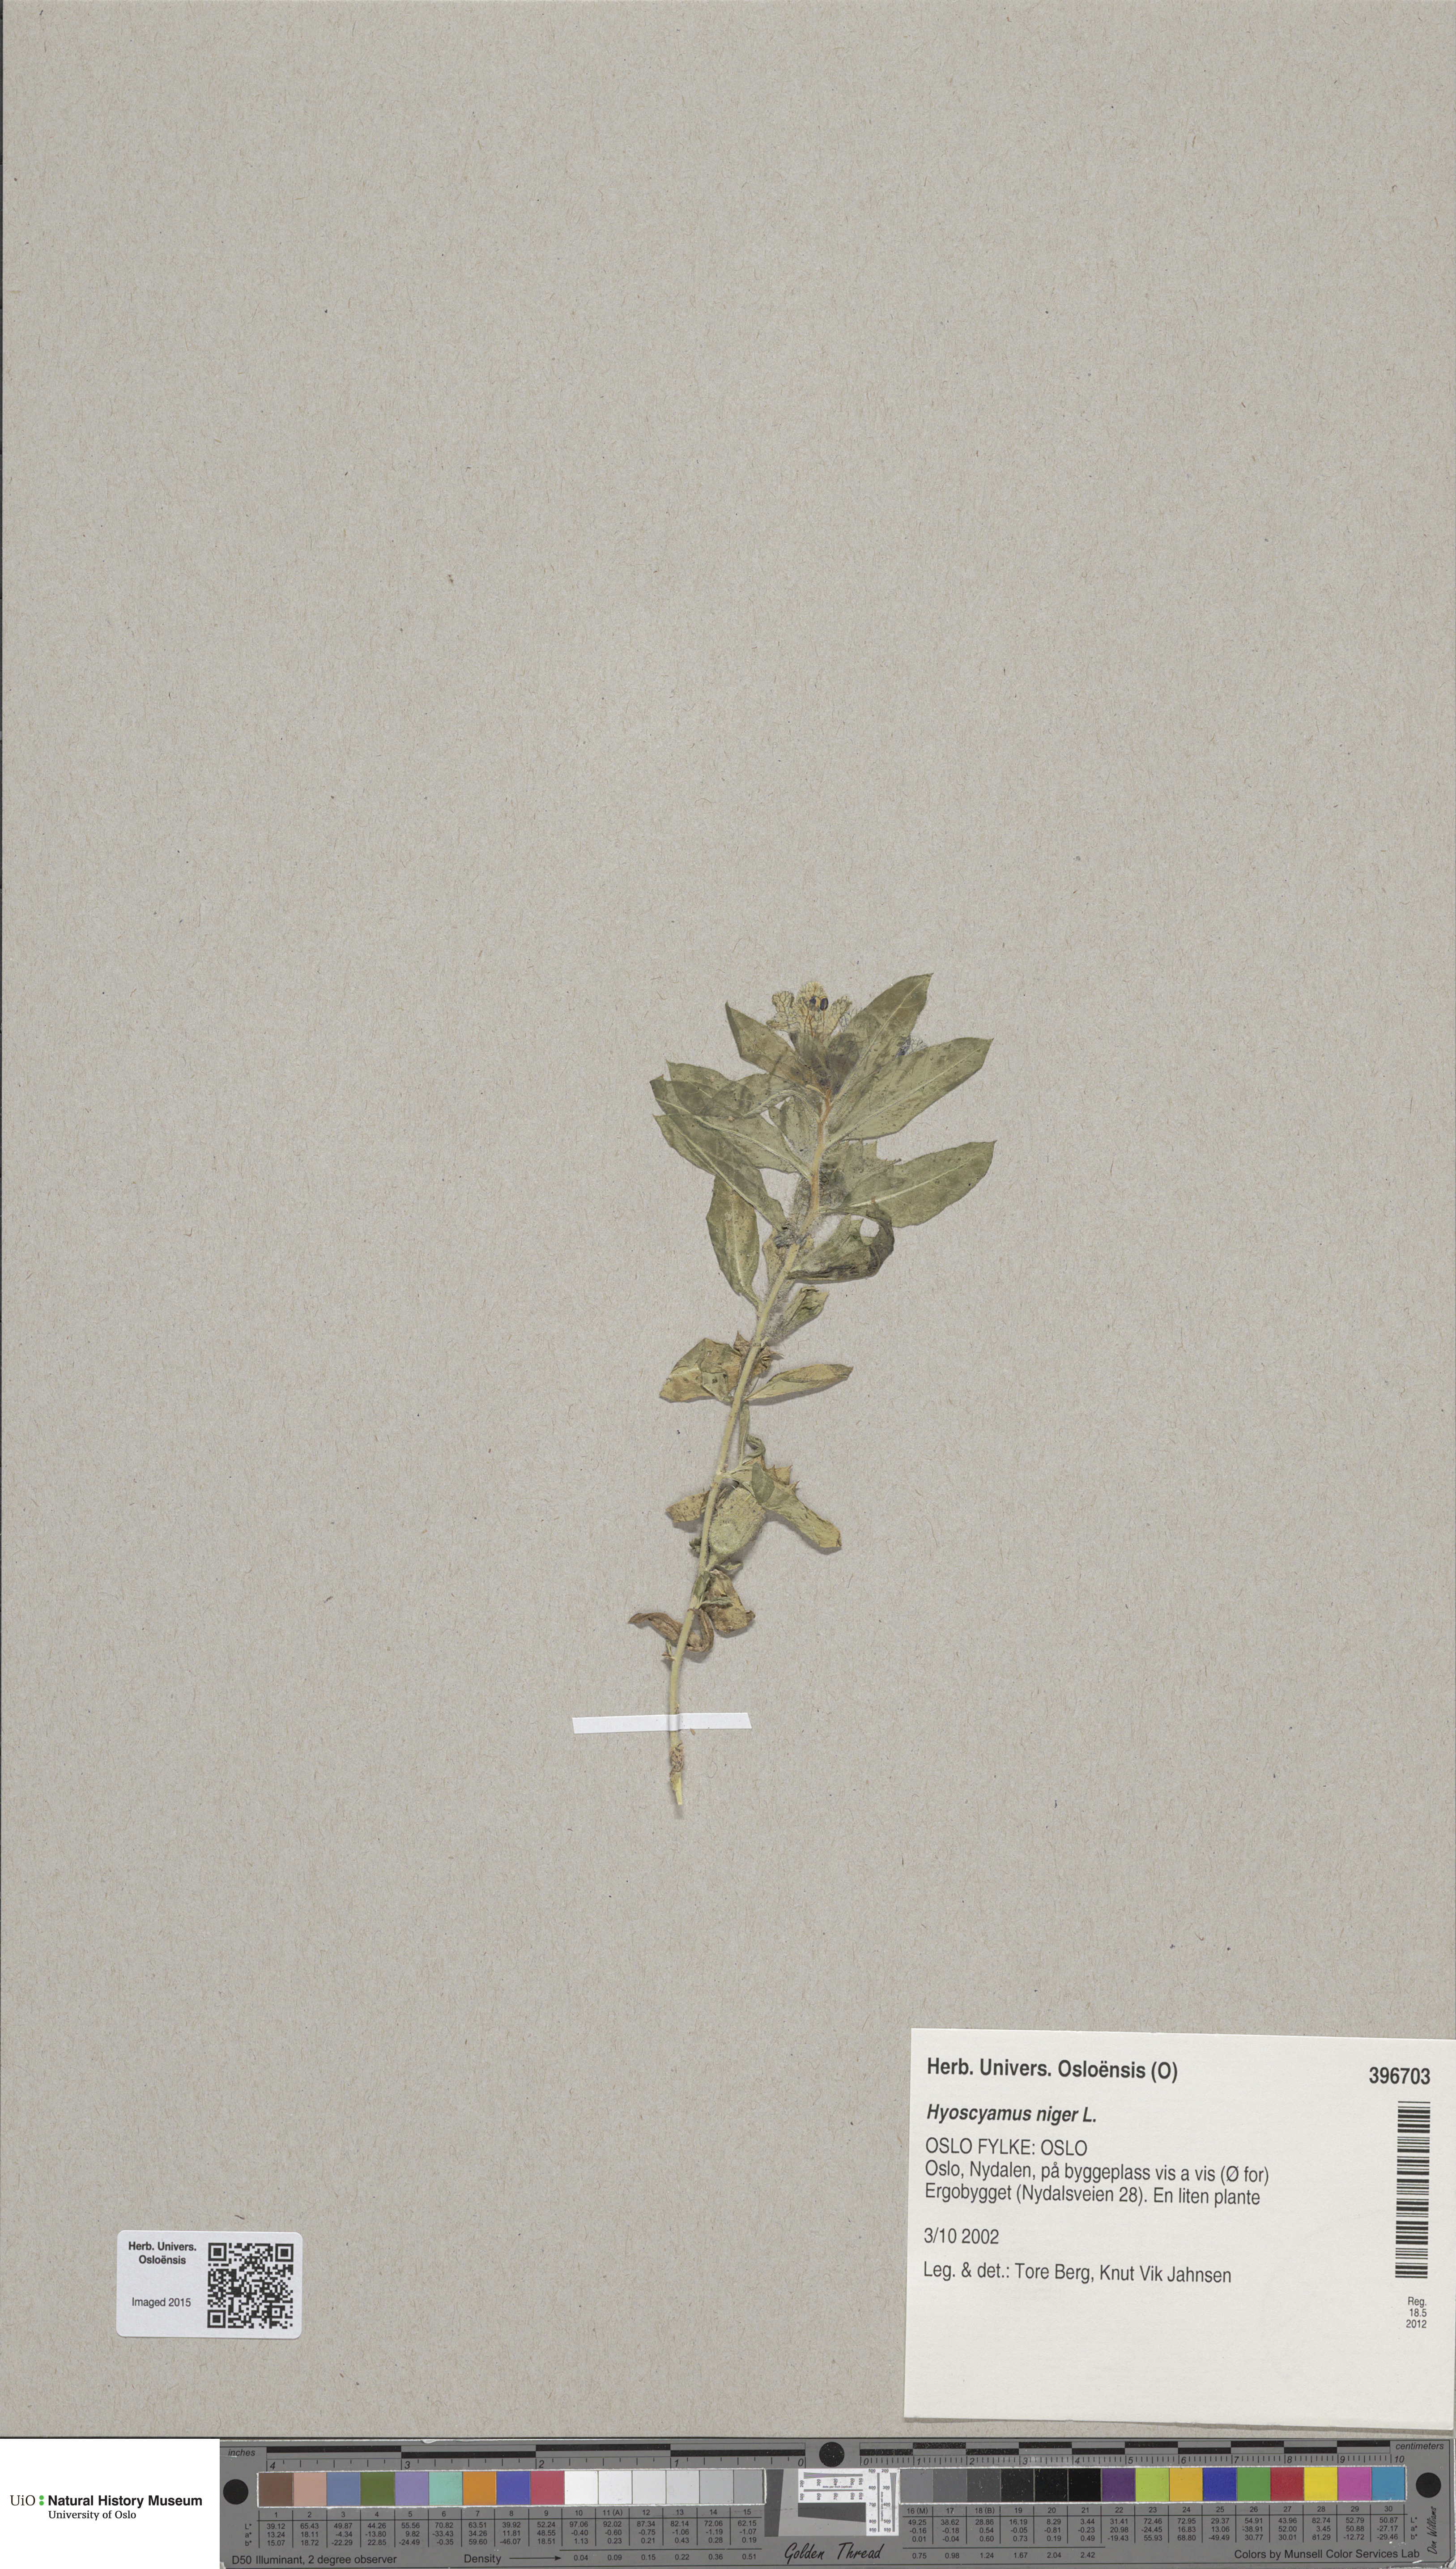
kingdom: Plantae
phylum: Tracheophyta
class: Magnoliopsida
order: Solanales
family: Solanaceae
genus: Hyoscyamus
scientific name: Hyoscyamus niger
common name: Henbane
